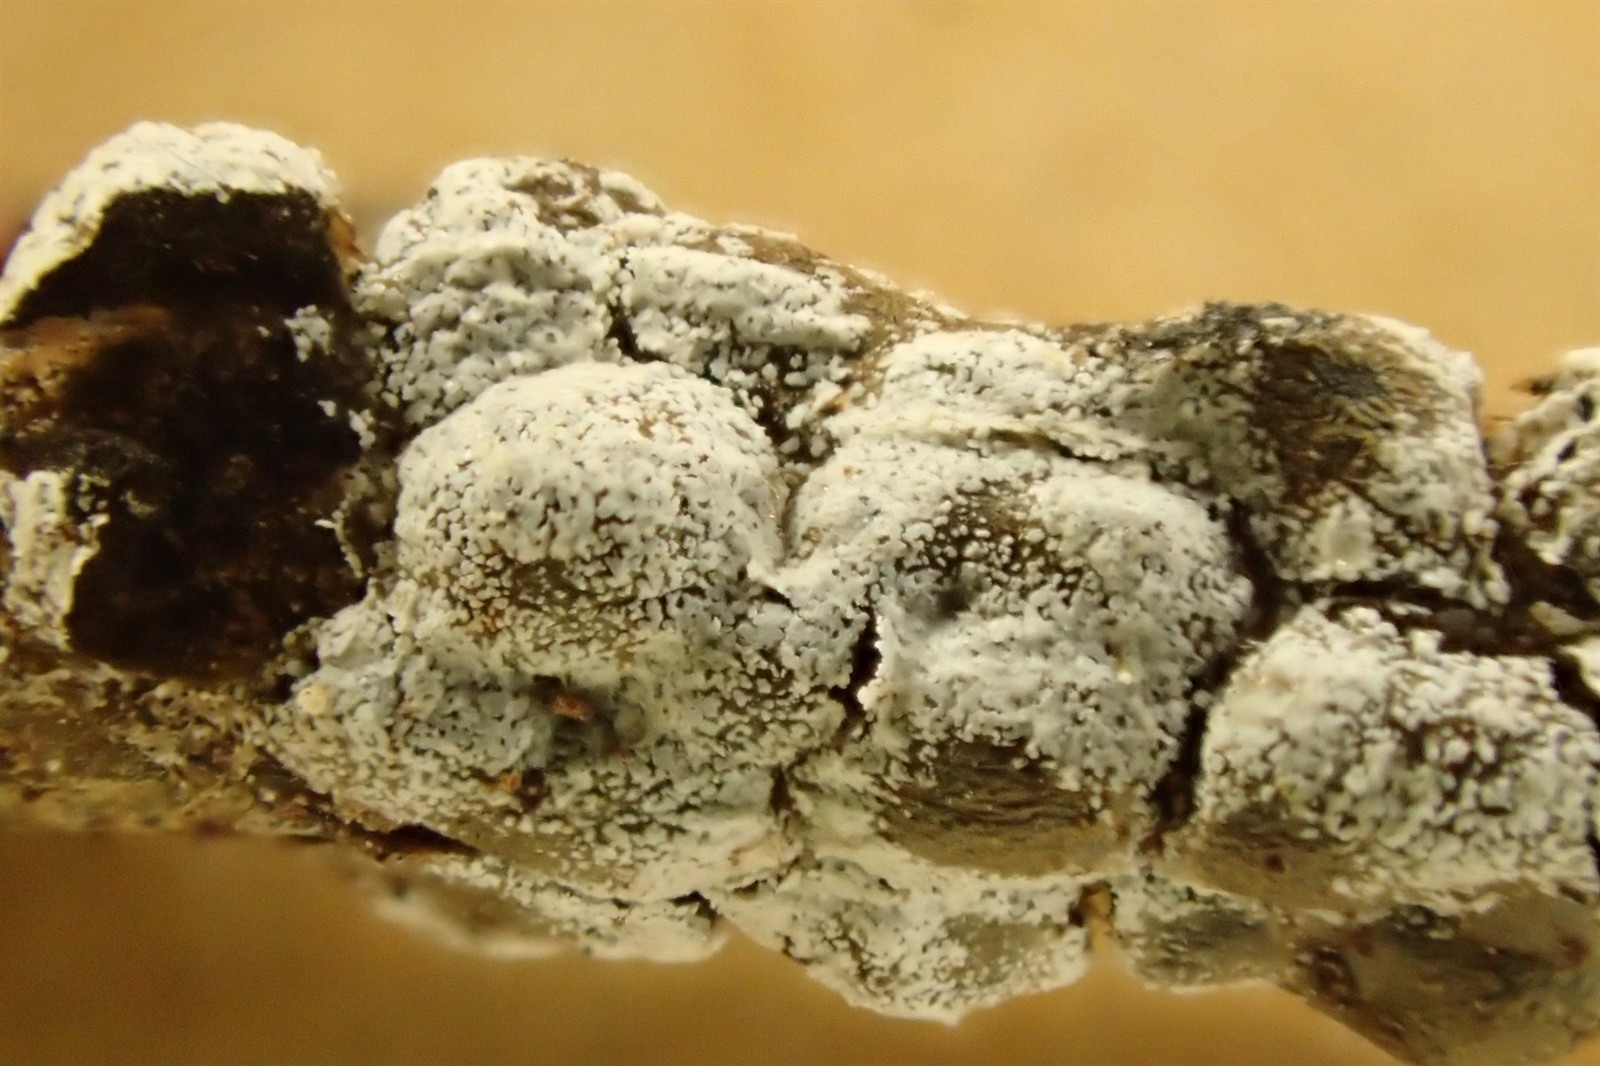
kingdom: Protozoa
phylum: Mycetozoa
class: Myxomycetes
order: Physarales
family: Didymiaceae
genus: Polyschismium
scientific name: Polyschismium chailletii
